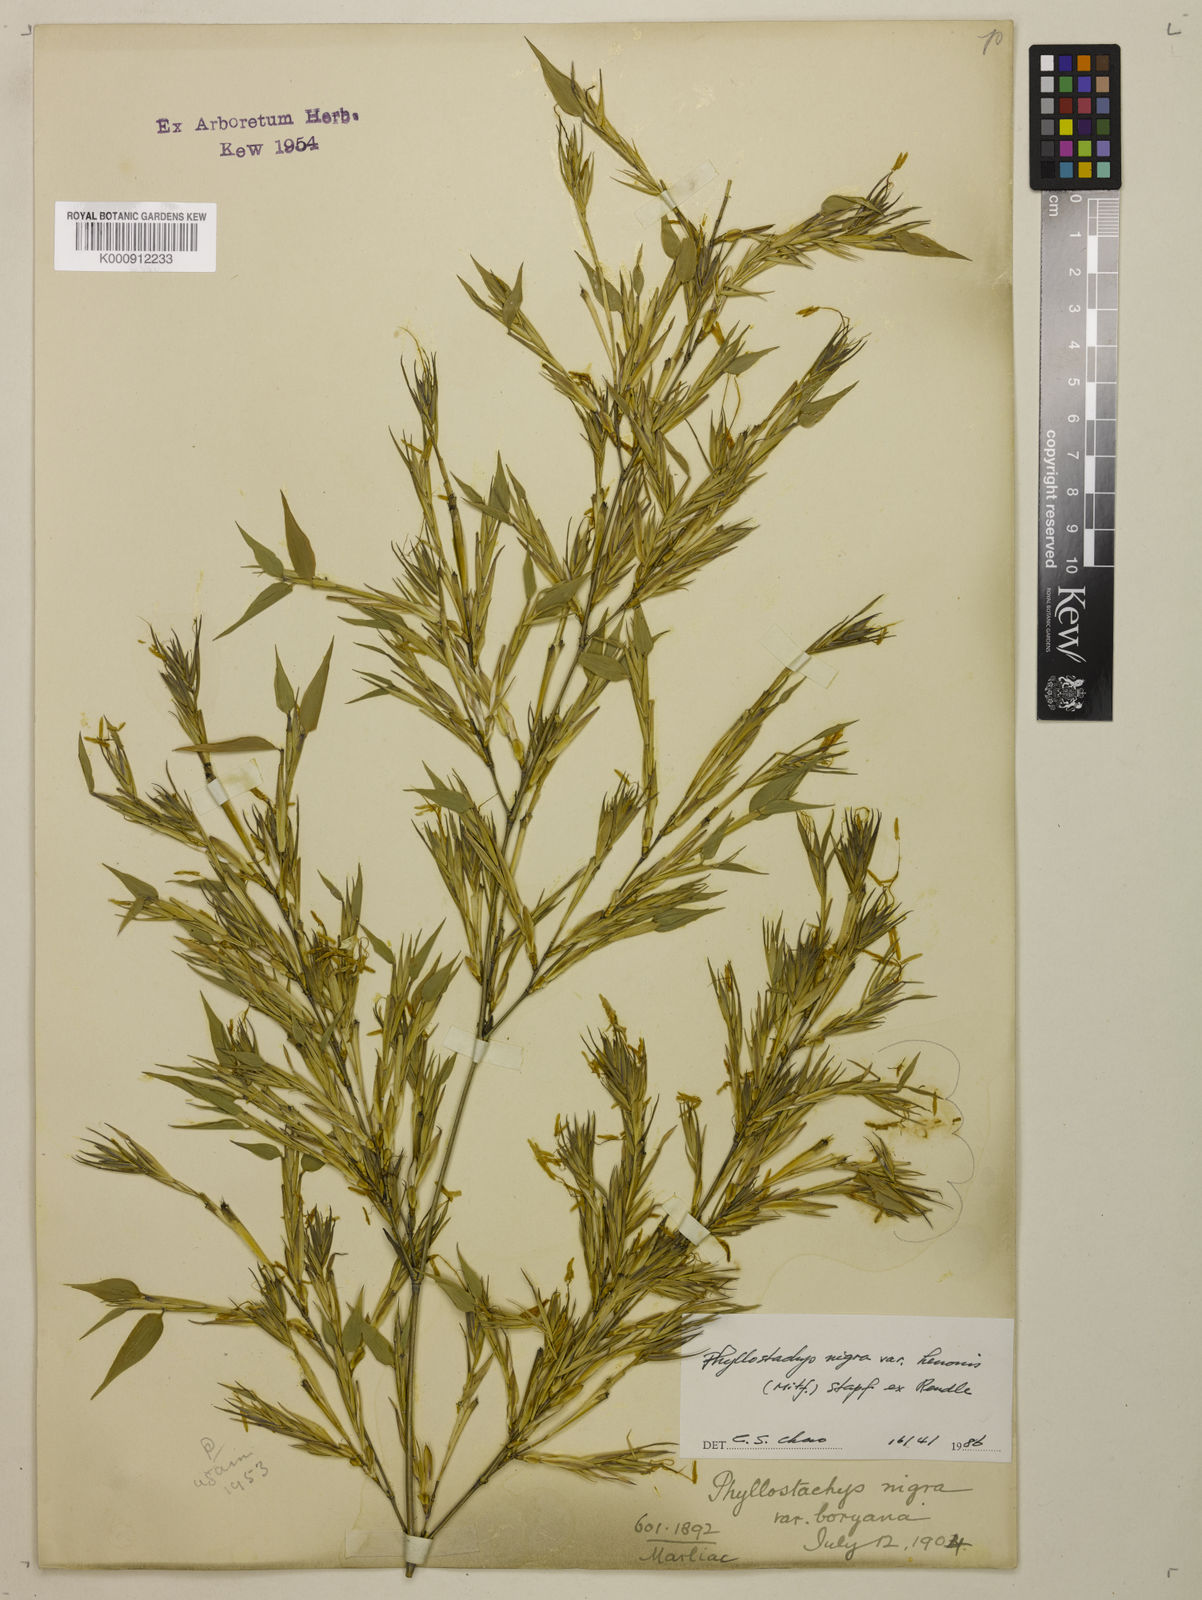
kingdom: Plantae
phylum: Tracheophyta
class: Liliopsida
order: Poales
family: Poaceae
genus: Phyllostachys
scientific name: Phyllostachys nigra
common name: Black bamboo
